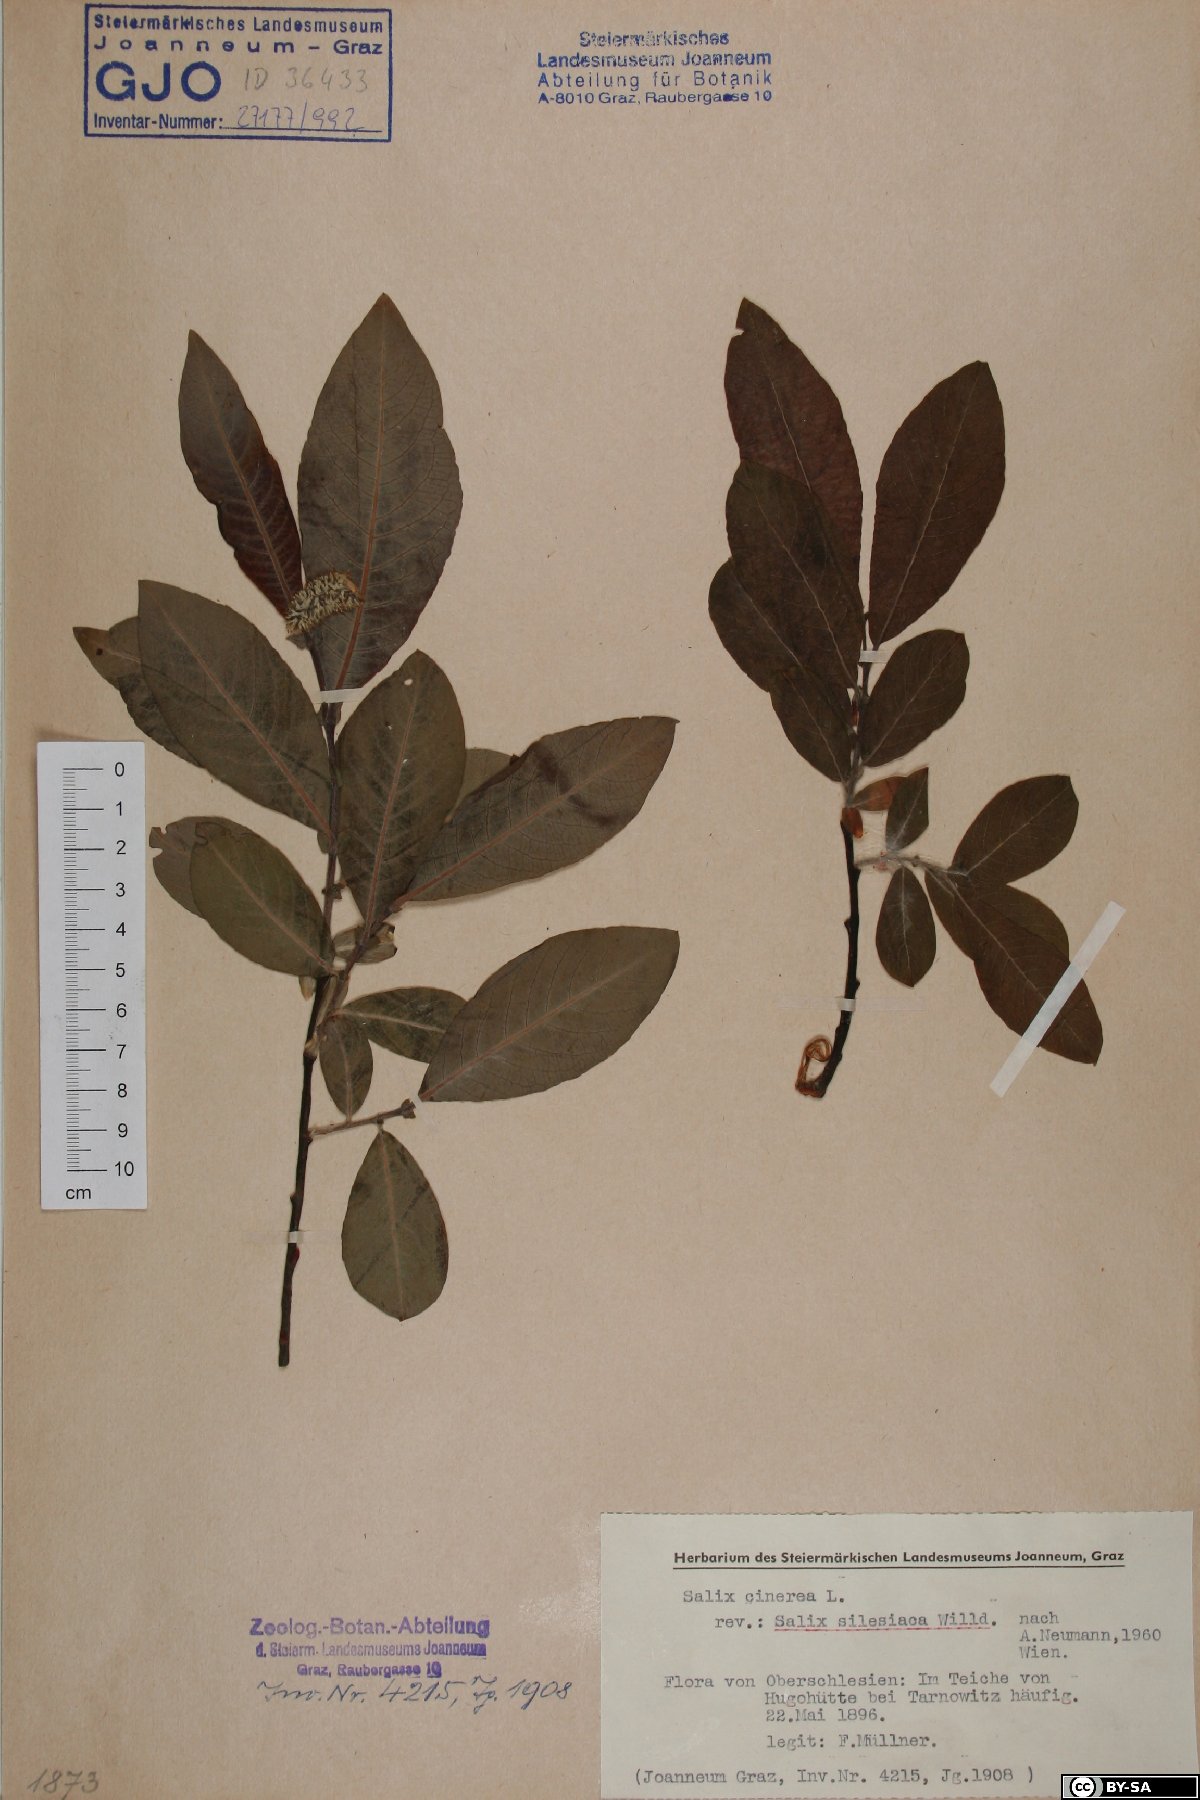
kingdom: Plantae
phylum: Tracheophyta
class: Magnoliopsida
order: Malpighiales
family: Salicaceae
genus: Salix
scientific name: Salix silesiaca
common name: Silesian willow
